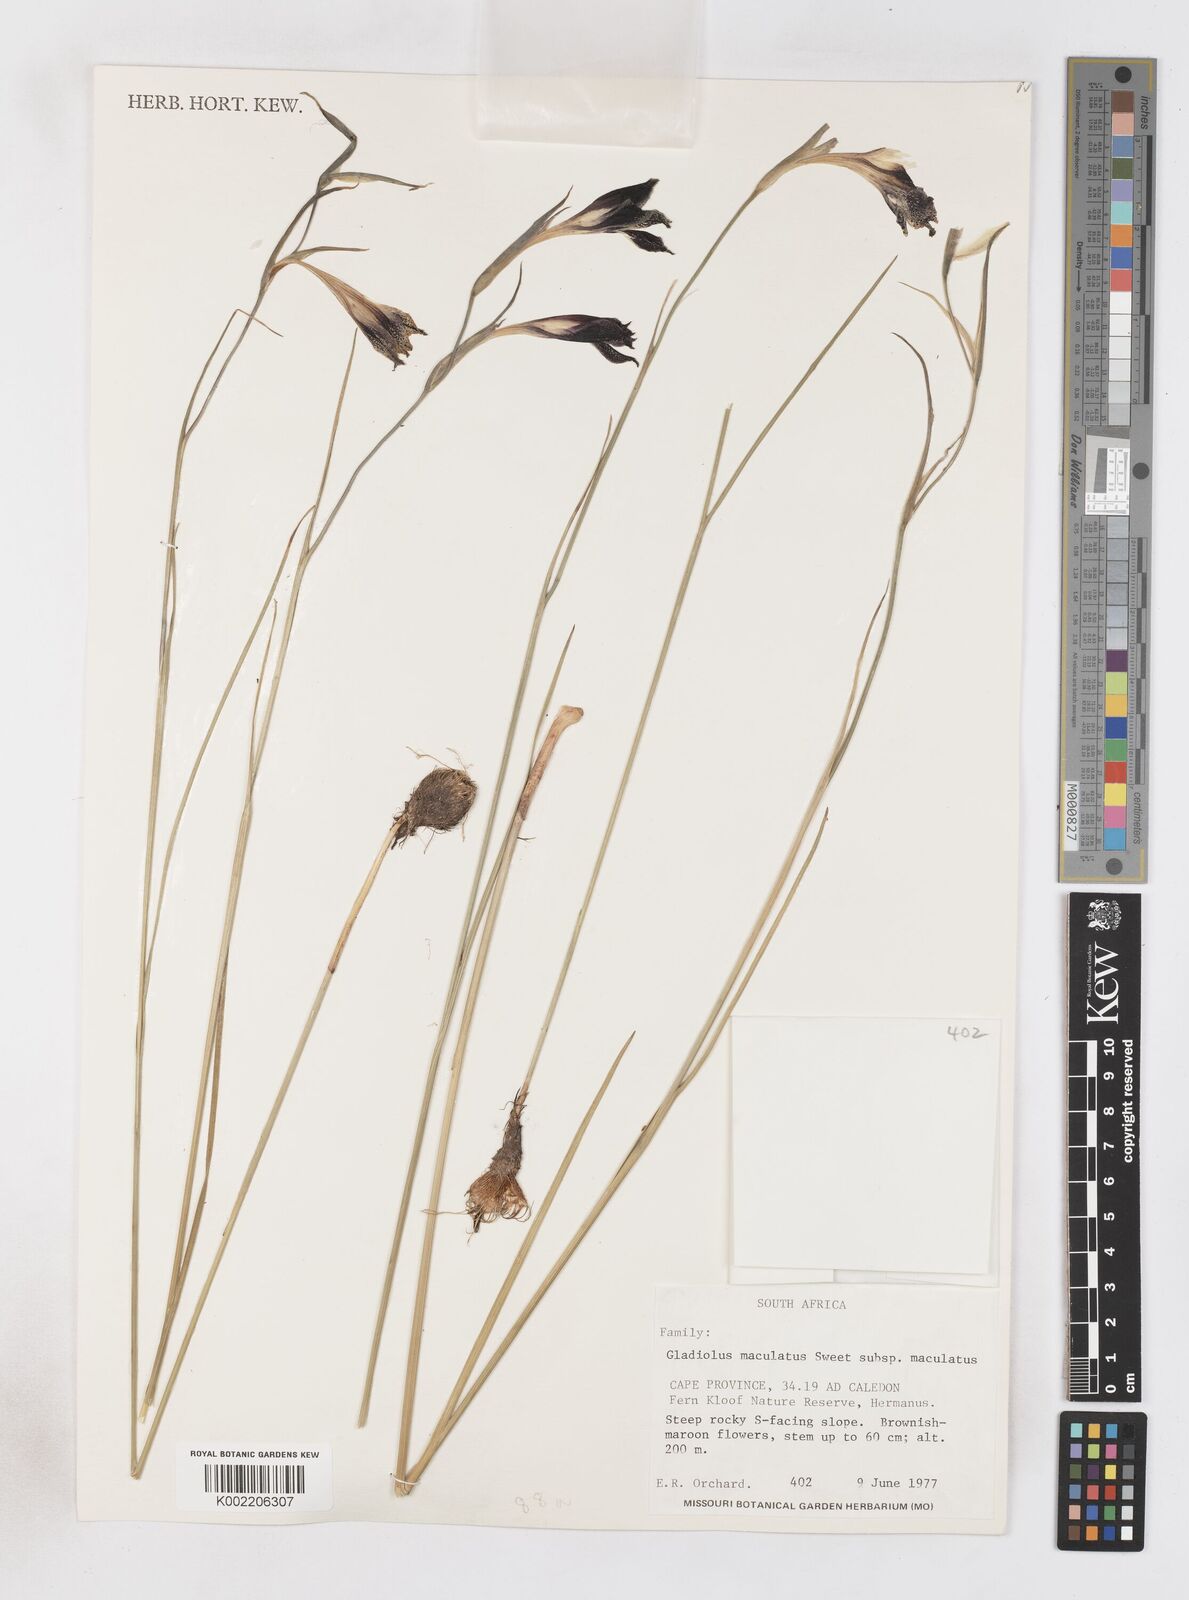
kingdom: Plantae
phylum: Tracheophyta
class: Liliopsida
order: Asparagales
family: Iridaceae
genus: Gladiolus
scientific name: Gladiolus maculatus
